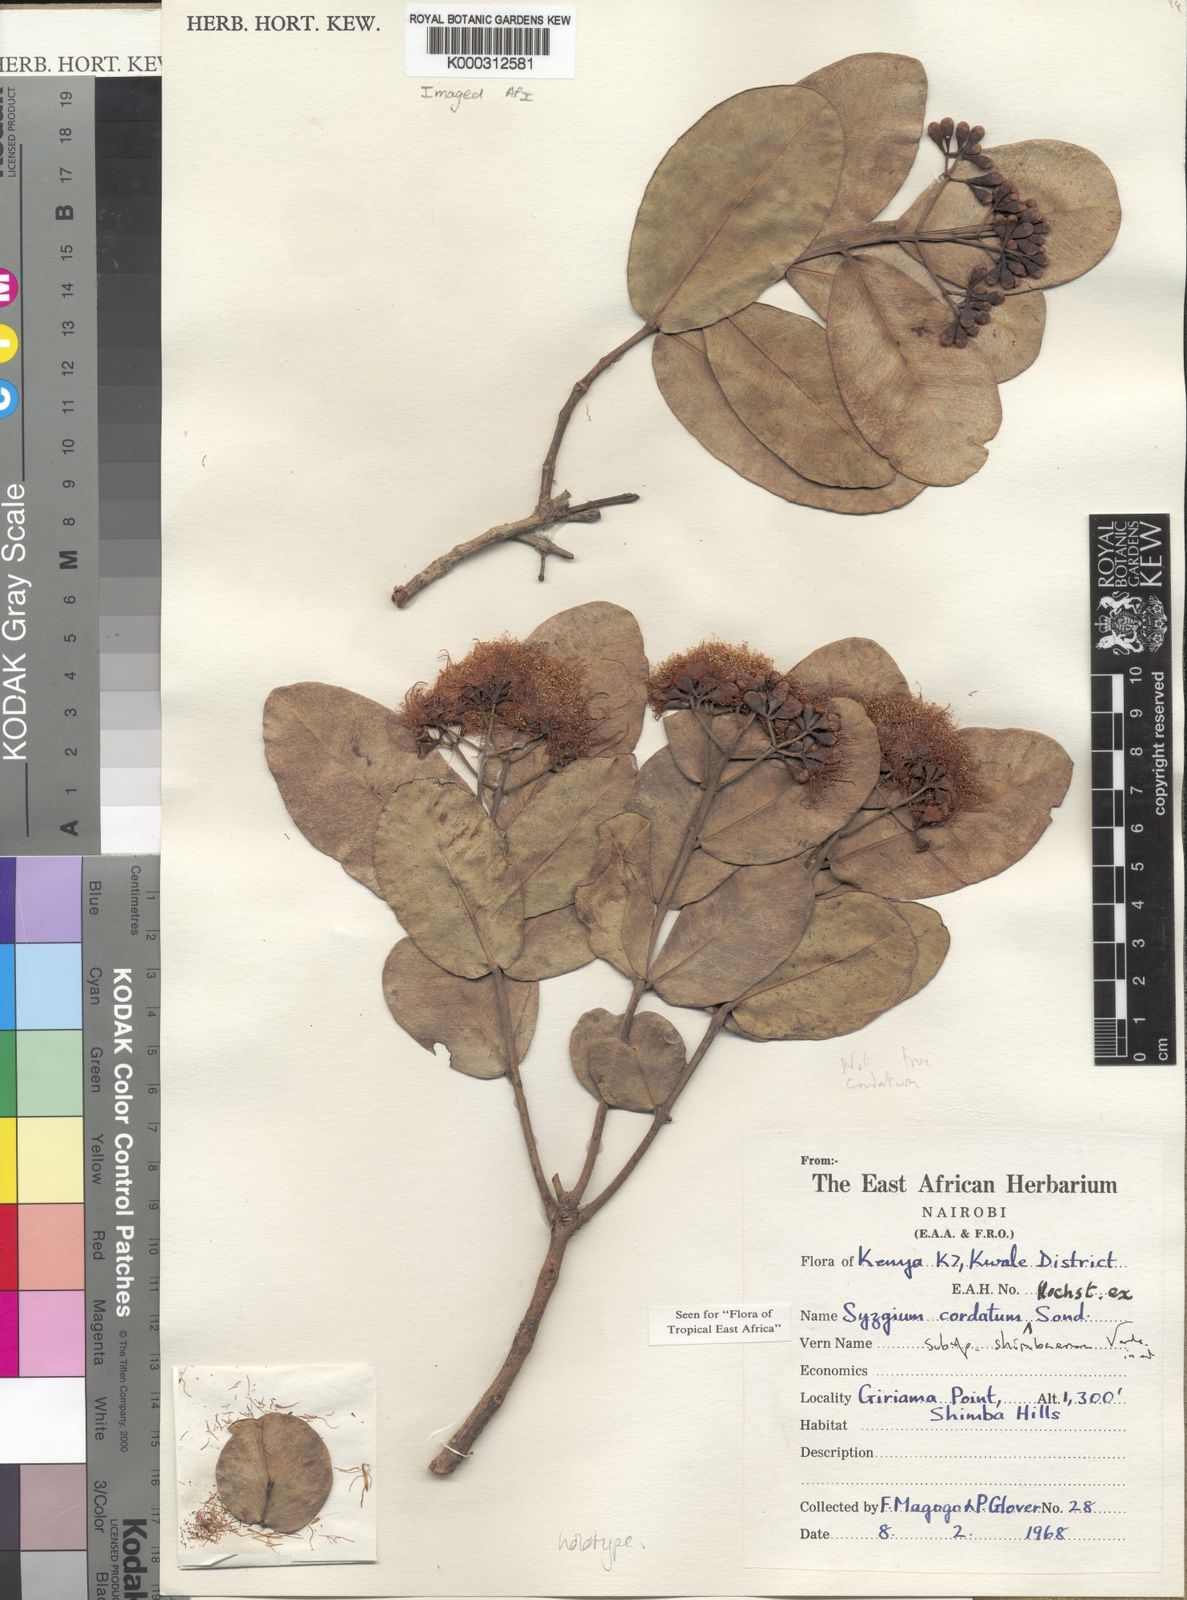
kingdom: Plantae
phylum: Tracheophyta
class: Magnoliopsida
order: Myrtales
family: Myrtaceae
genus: Syzygium
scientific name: Syzygium cordatum
